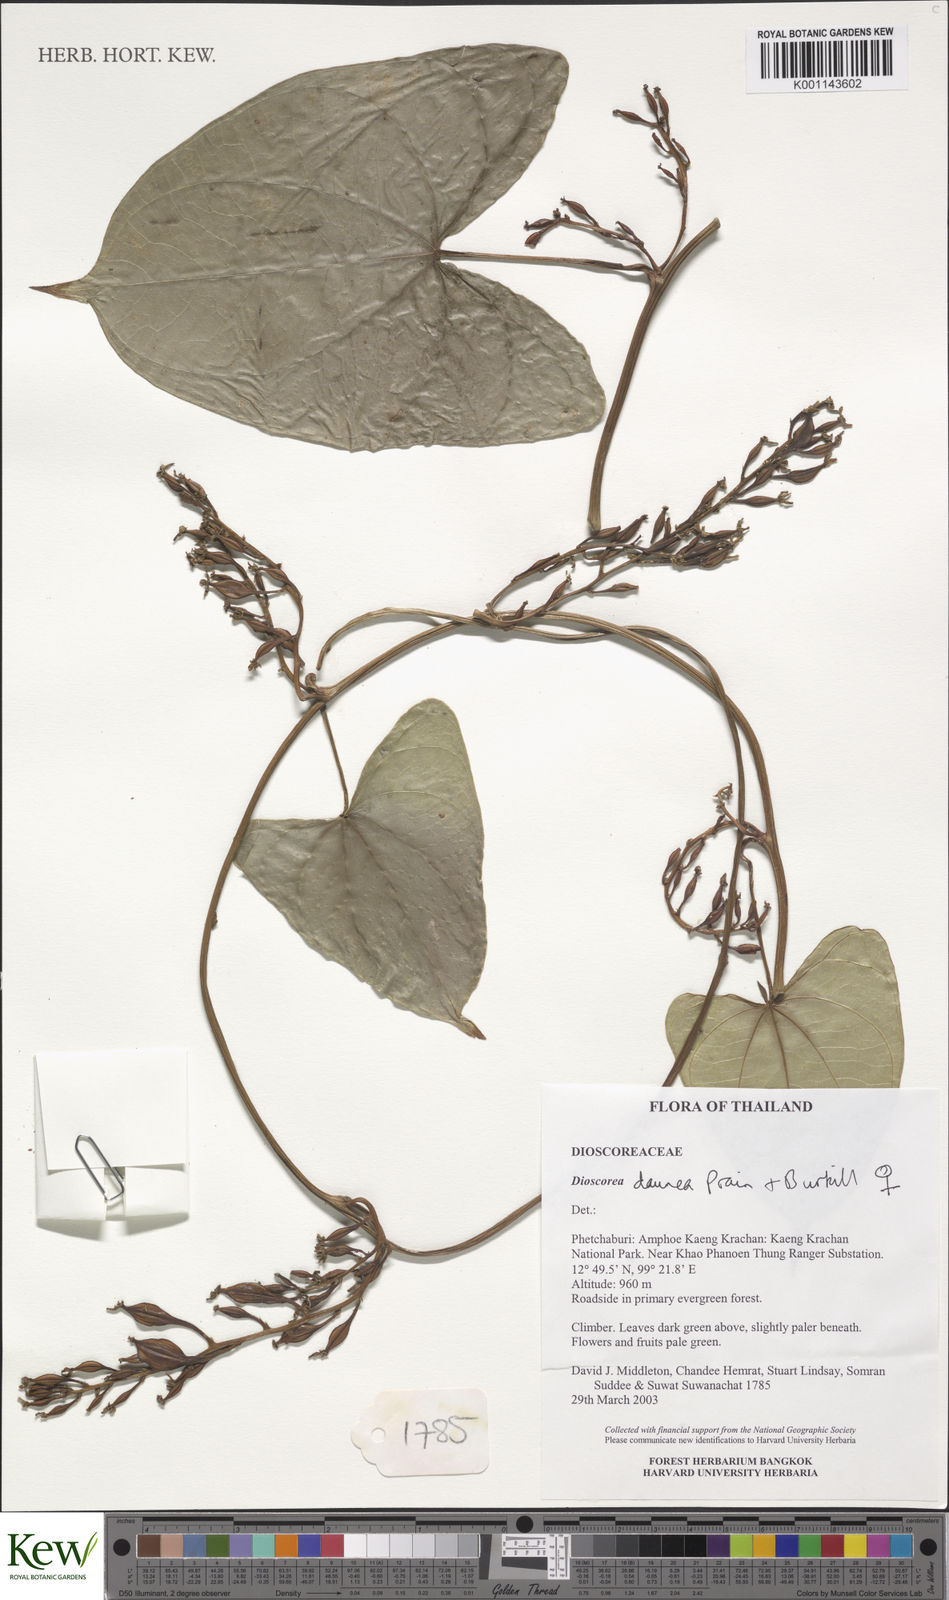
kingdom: Plantae
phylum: Tracheophyta
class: Liliopsida
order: Dioscoreales
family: Dioscoreaceae
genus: Dioscorea
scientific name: Dioscorea daunea
